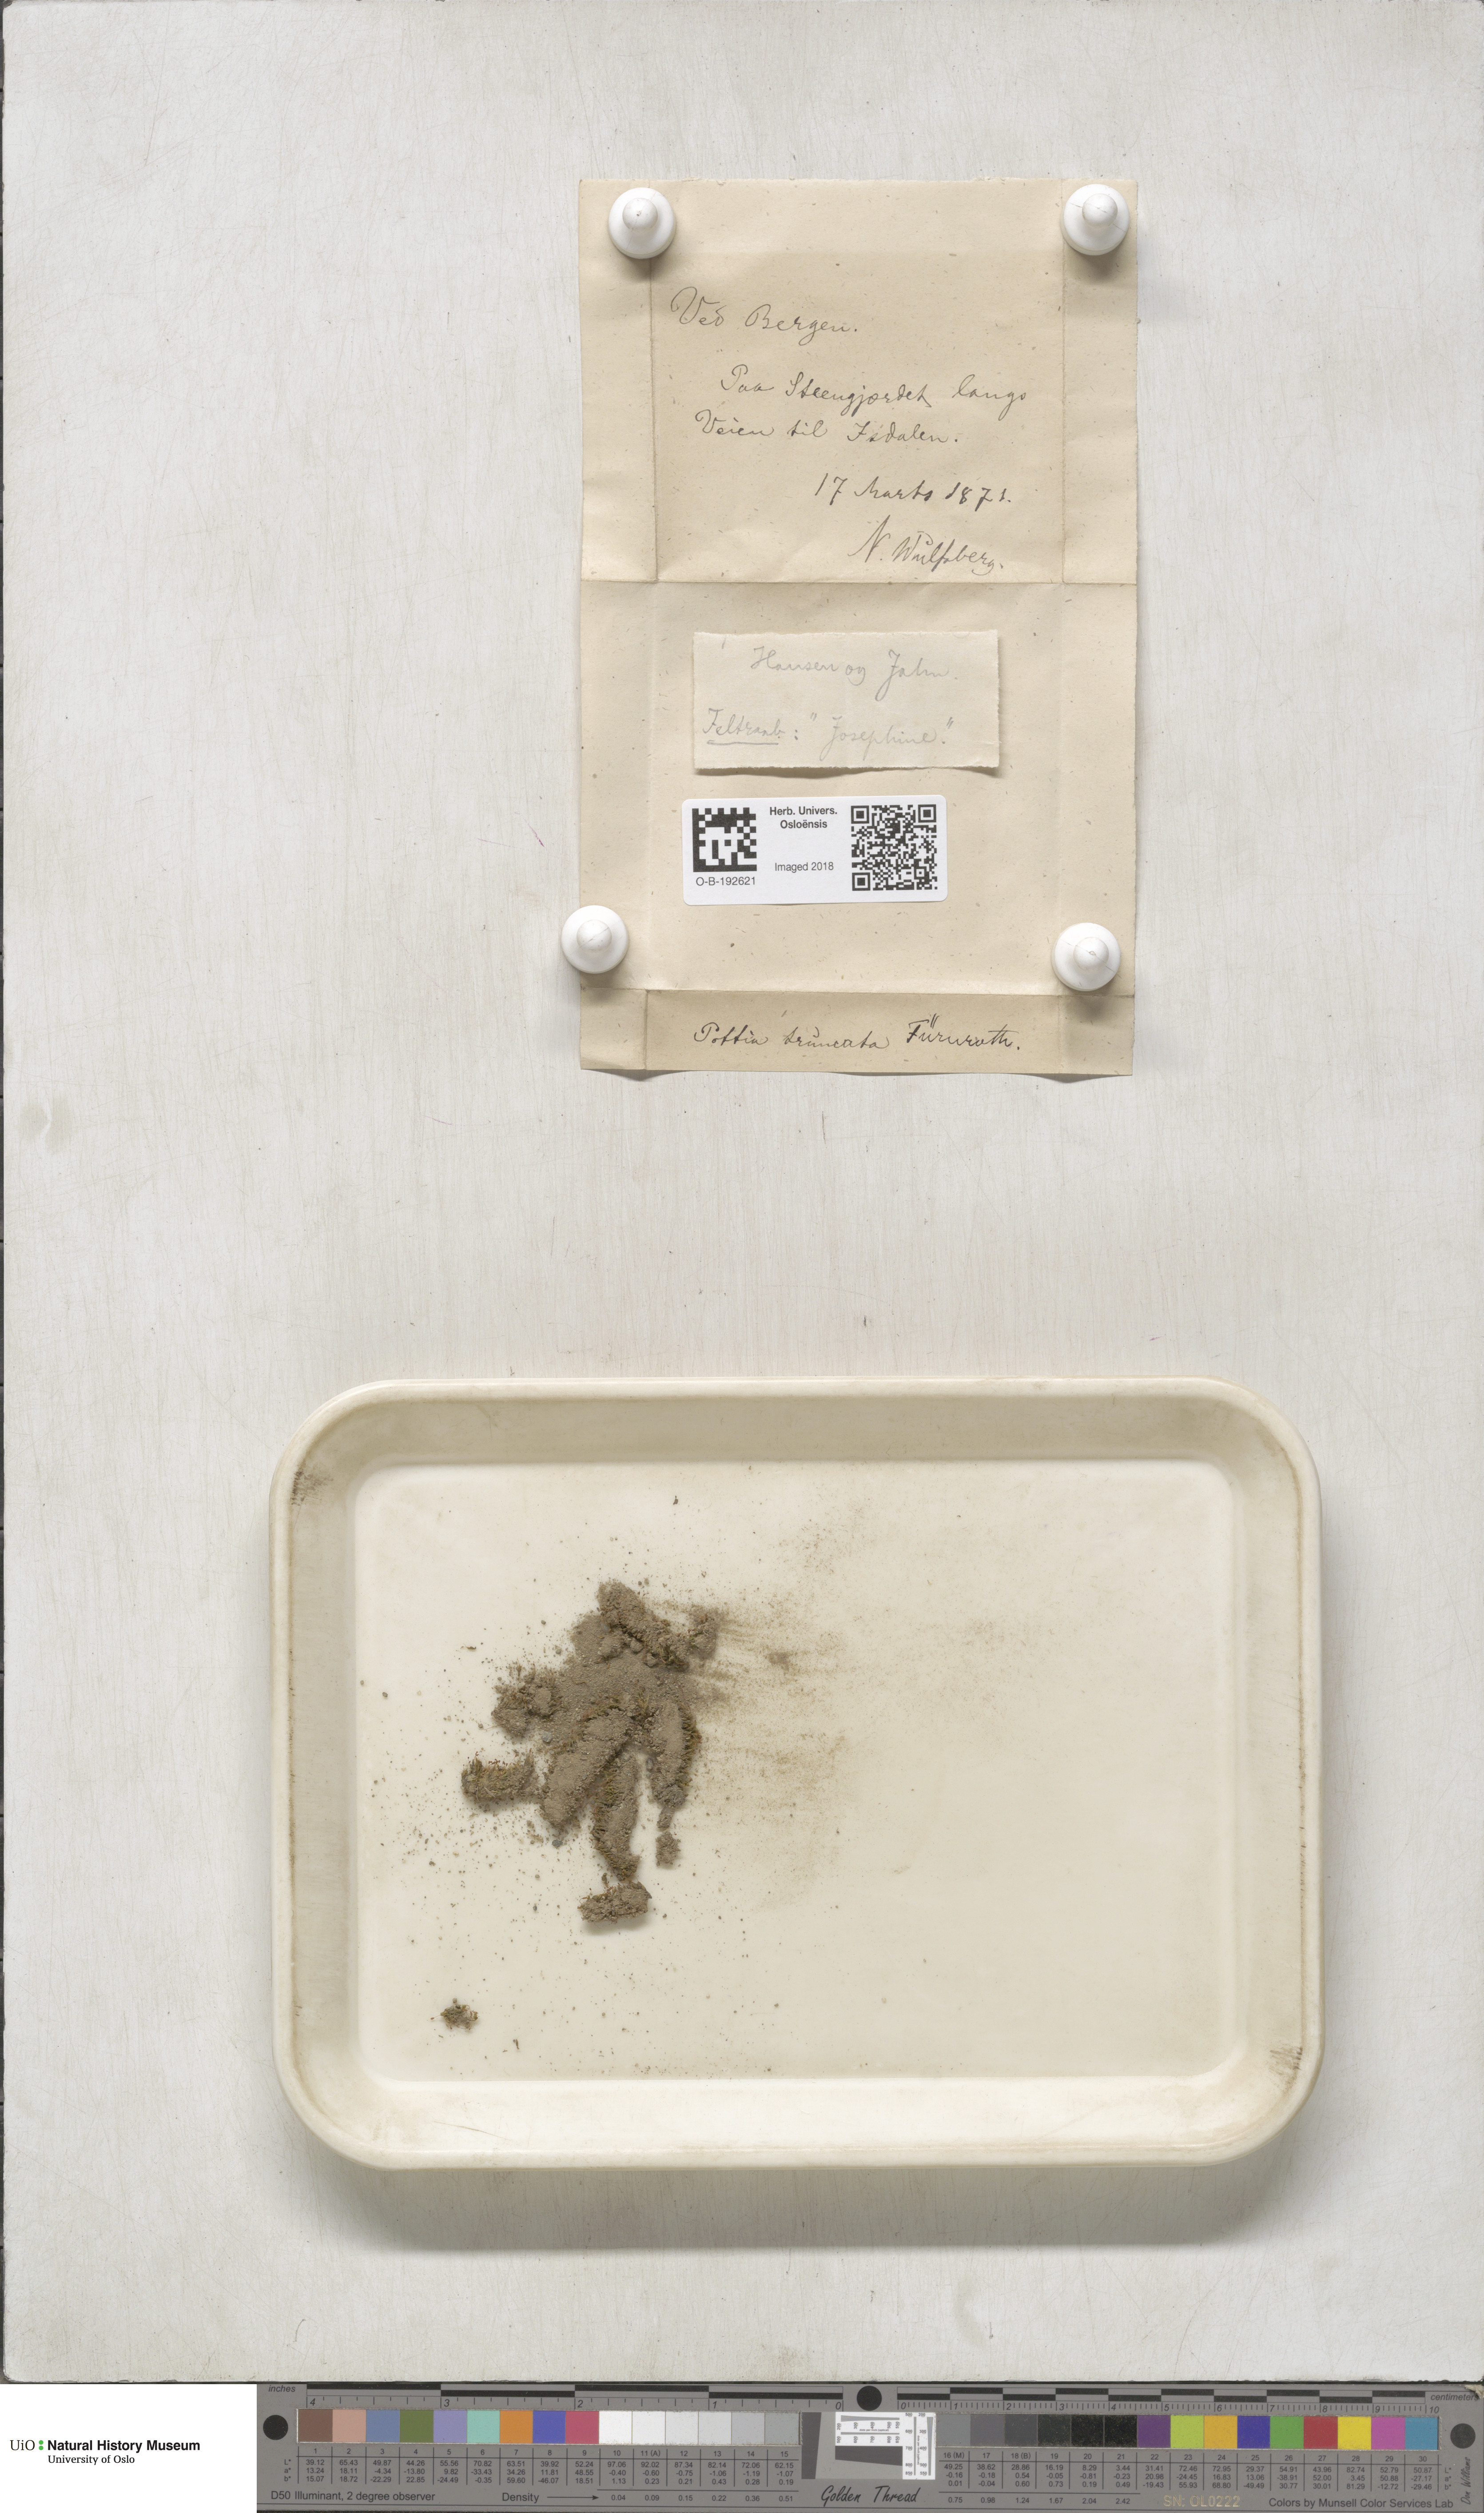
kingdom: Plantae
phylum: Bryophyta
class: Bryopsida
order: Pottiales
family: Pottiaceae
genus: Tortula
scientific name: Tortula truncata
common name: Truncated screw moss
